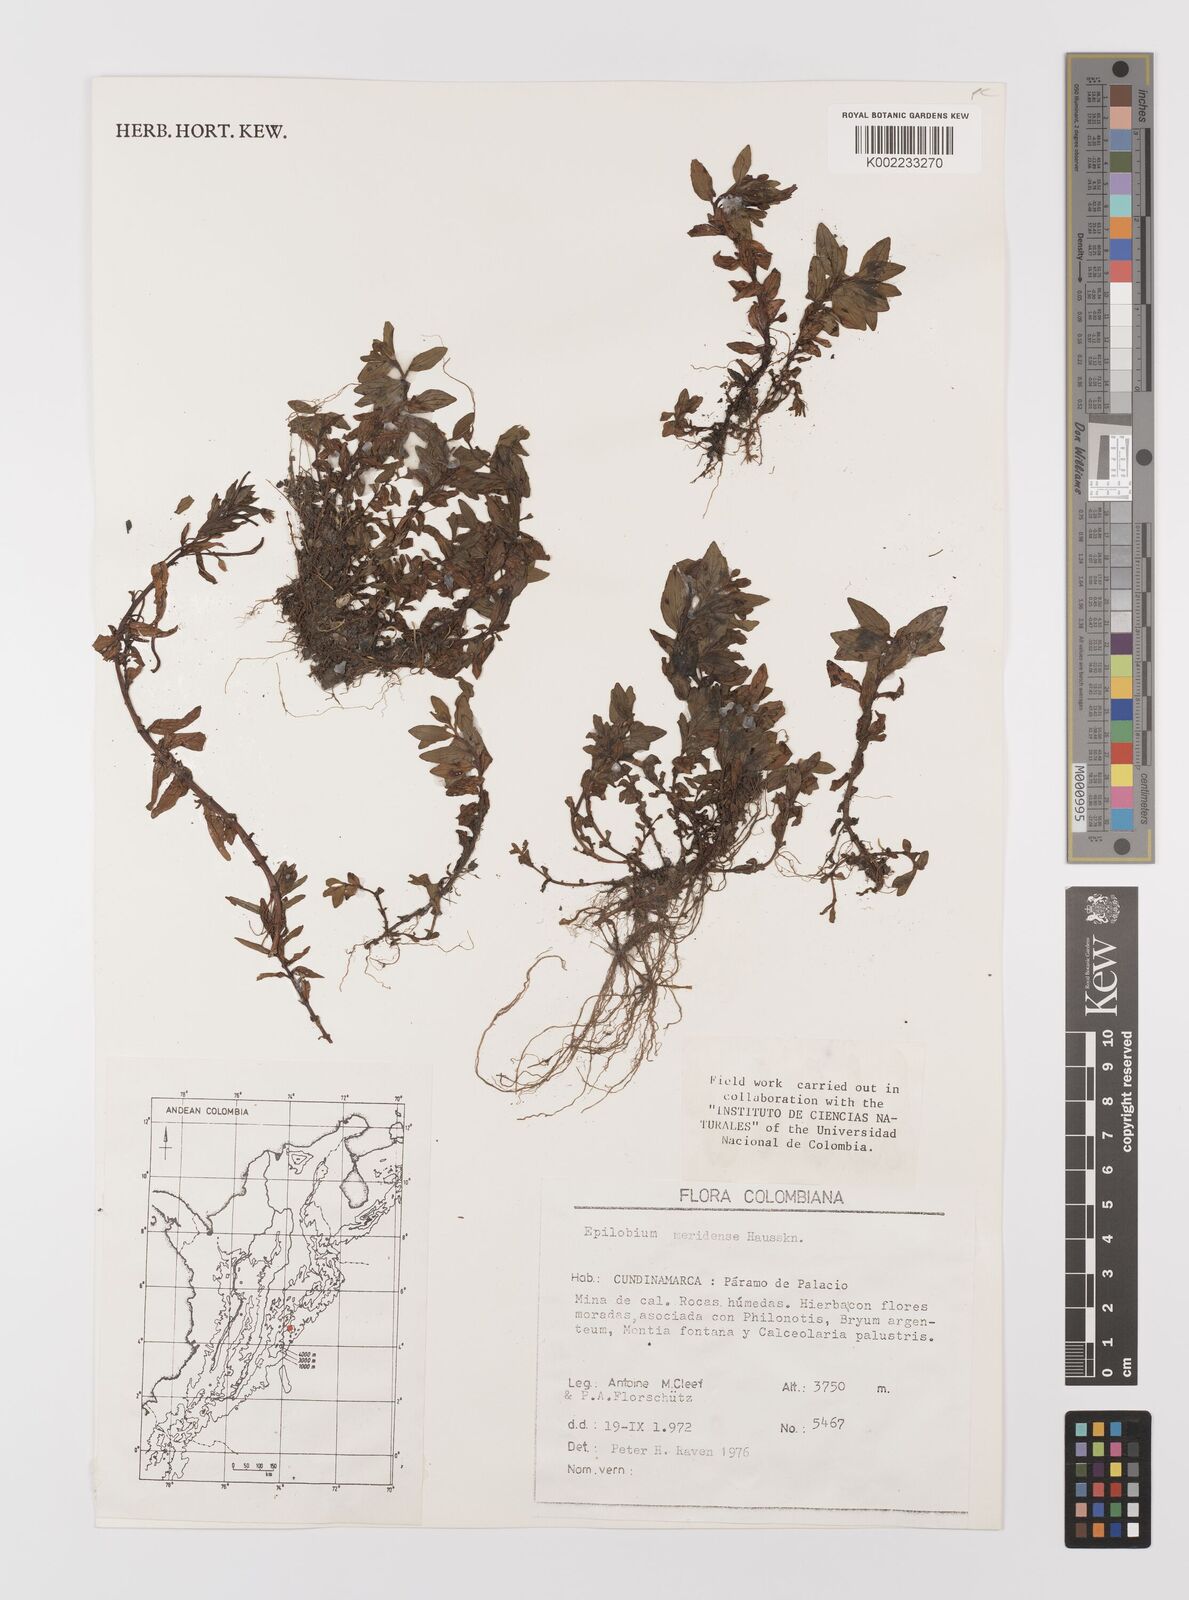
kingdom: Plantae
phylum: Tracheophyta
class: Magnoliopsida
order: Myrtales
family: Onagraceae
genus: Epilobium
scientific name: Epilobium denticulatum
